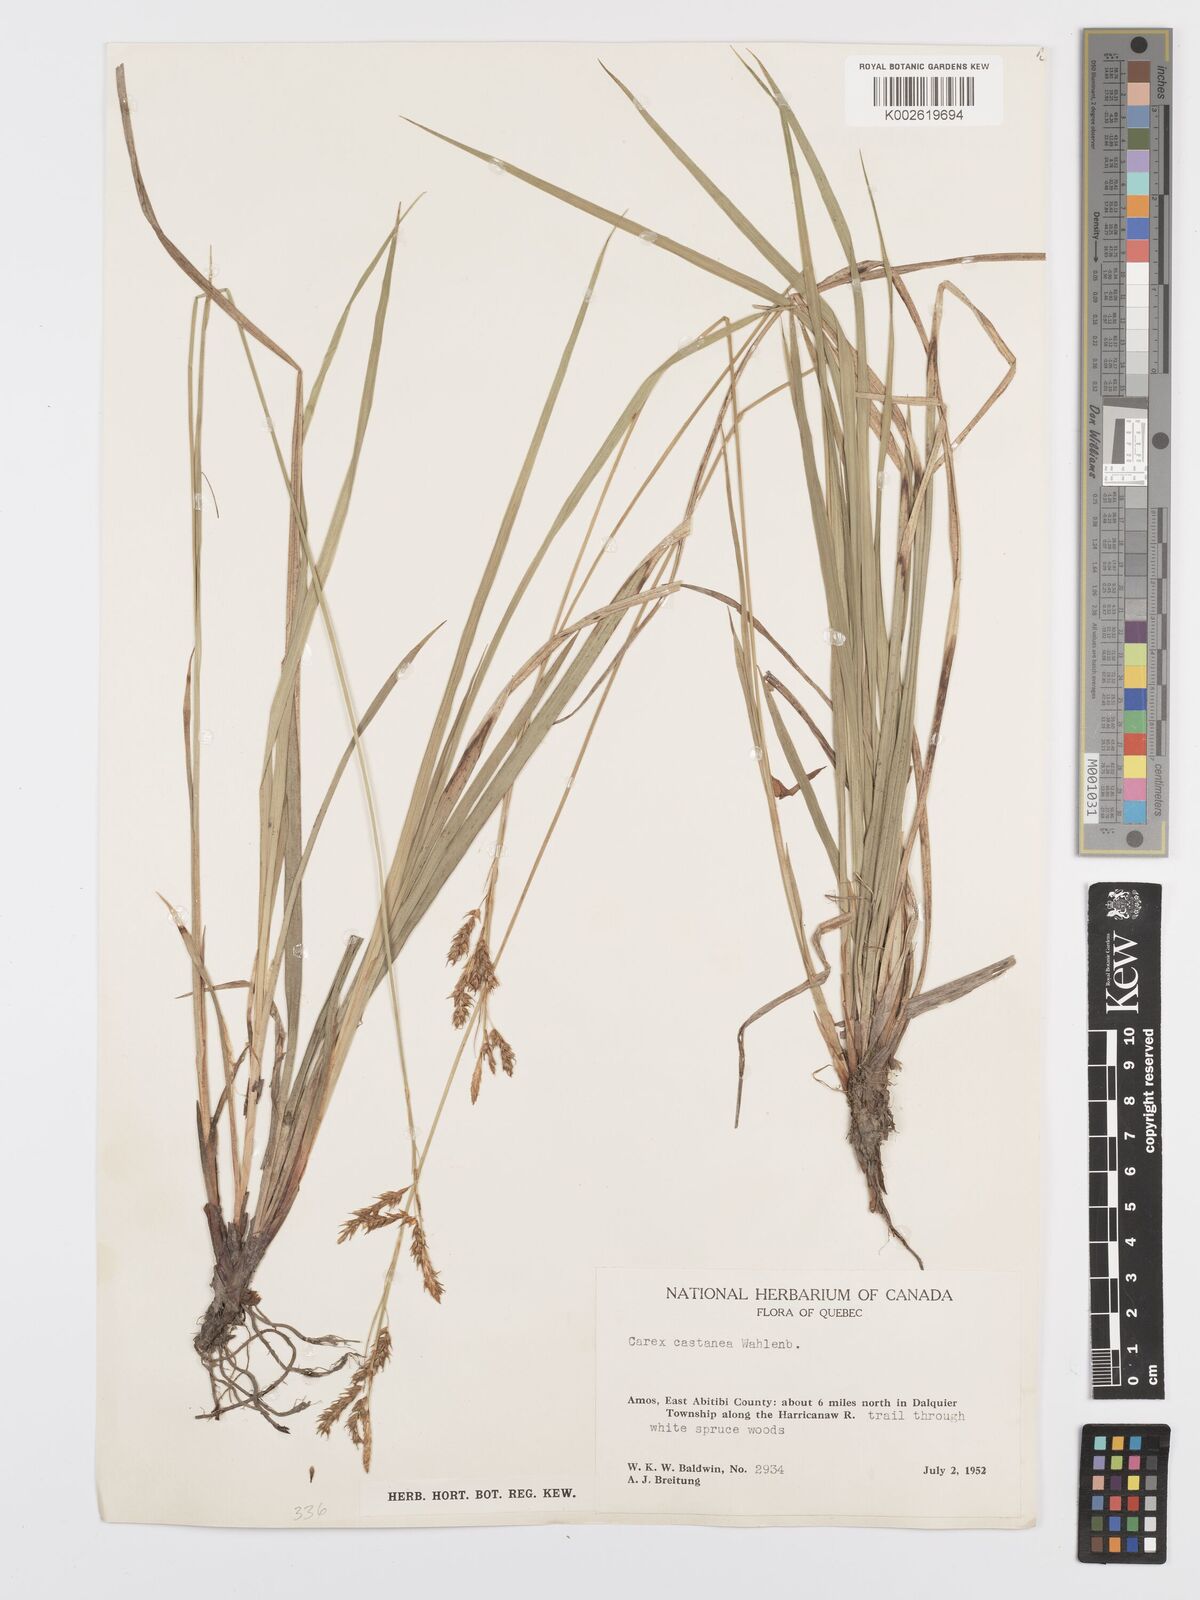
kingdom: Plantae
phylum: Tracheophyta
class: Liliopsida
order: Poales
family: Cyperaceae
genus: Carex
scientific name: Carex castanea
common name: Chestnut sedge
